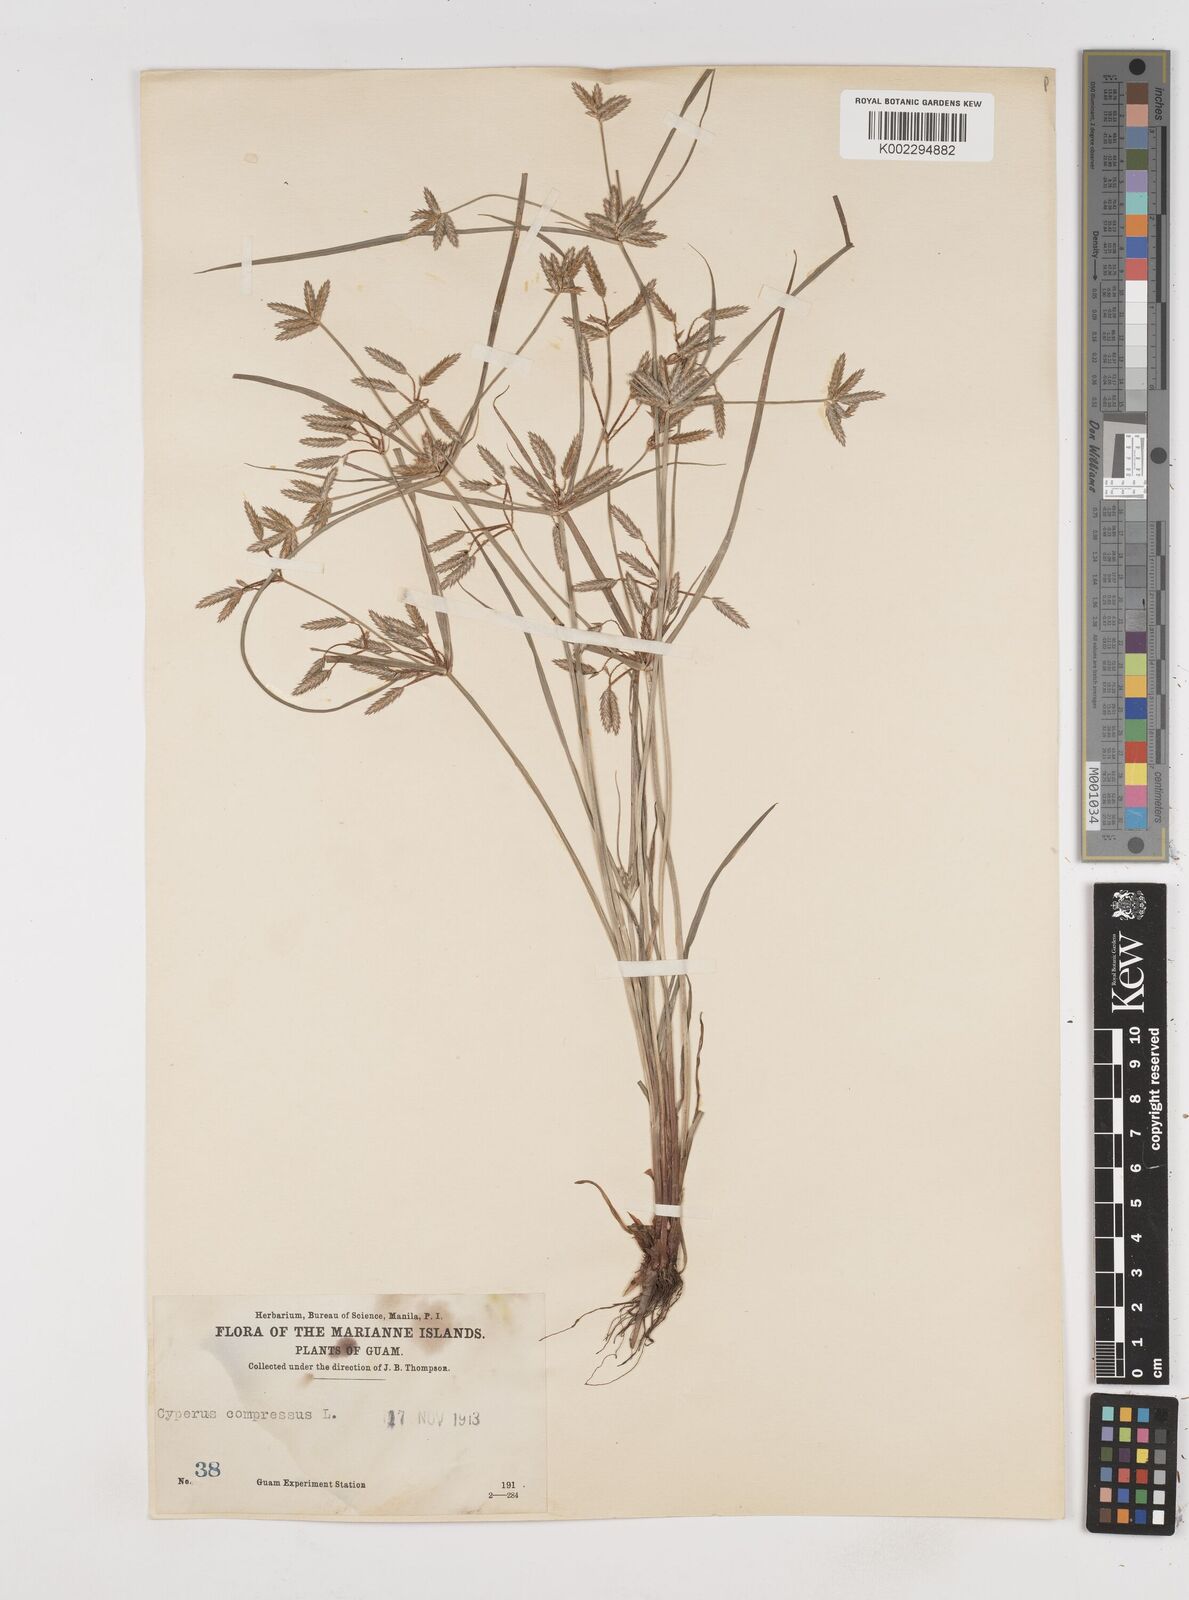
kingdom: Plantae
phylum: Tracheophyta
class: Liliopsida
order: Poales
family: Cyperaceae
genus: Cyperus
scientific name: Cyperus compressus
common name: Poorland flatsedge
